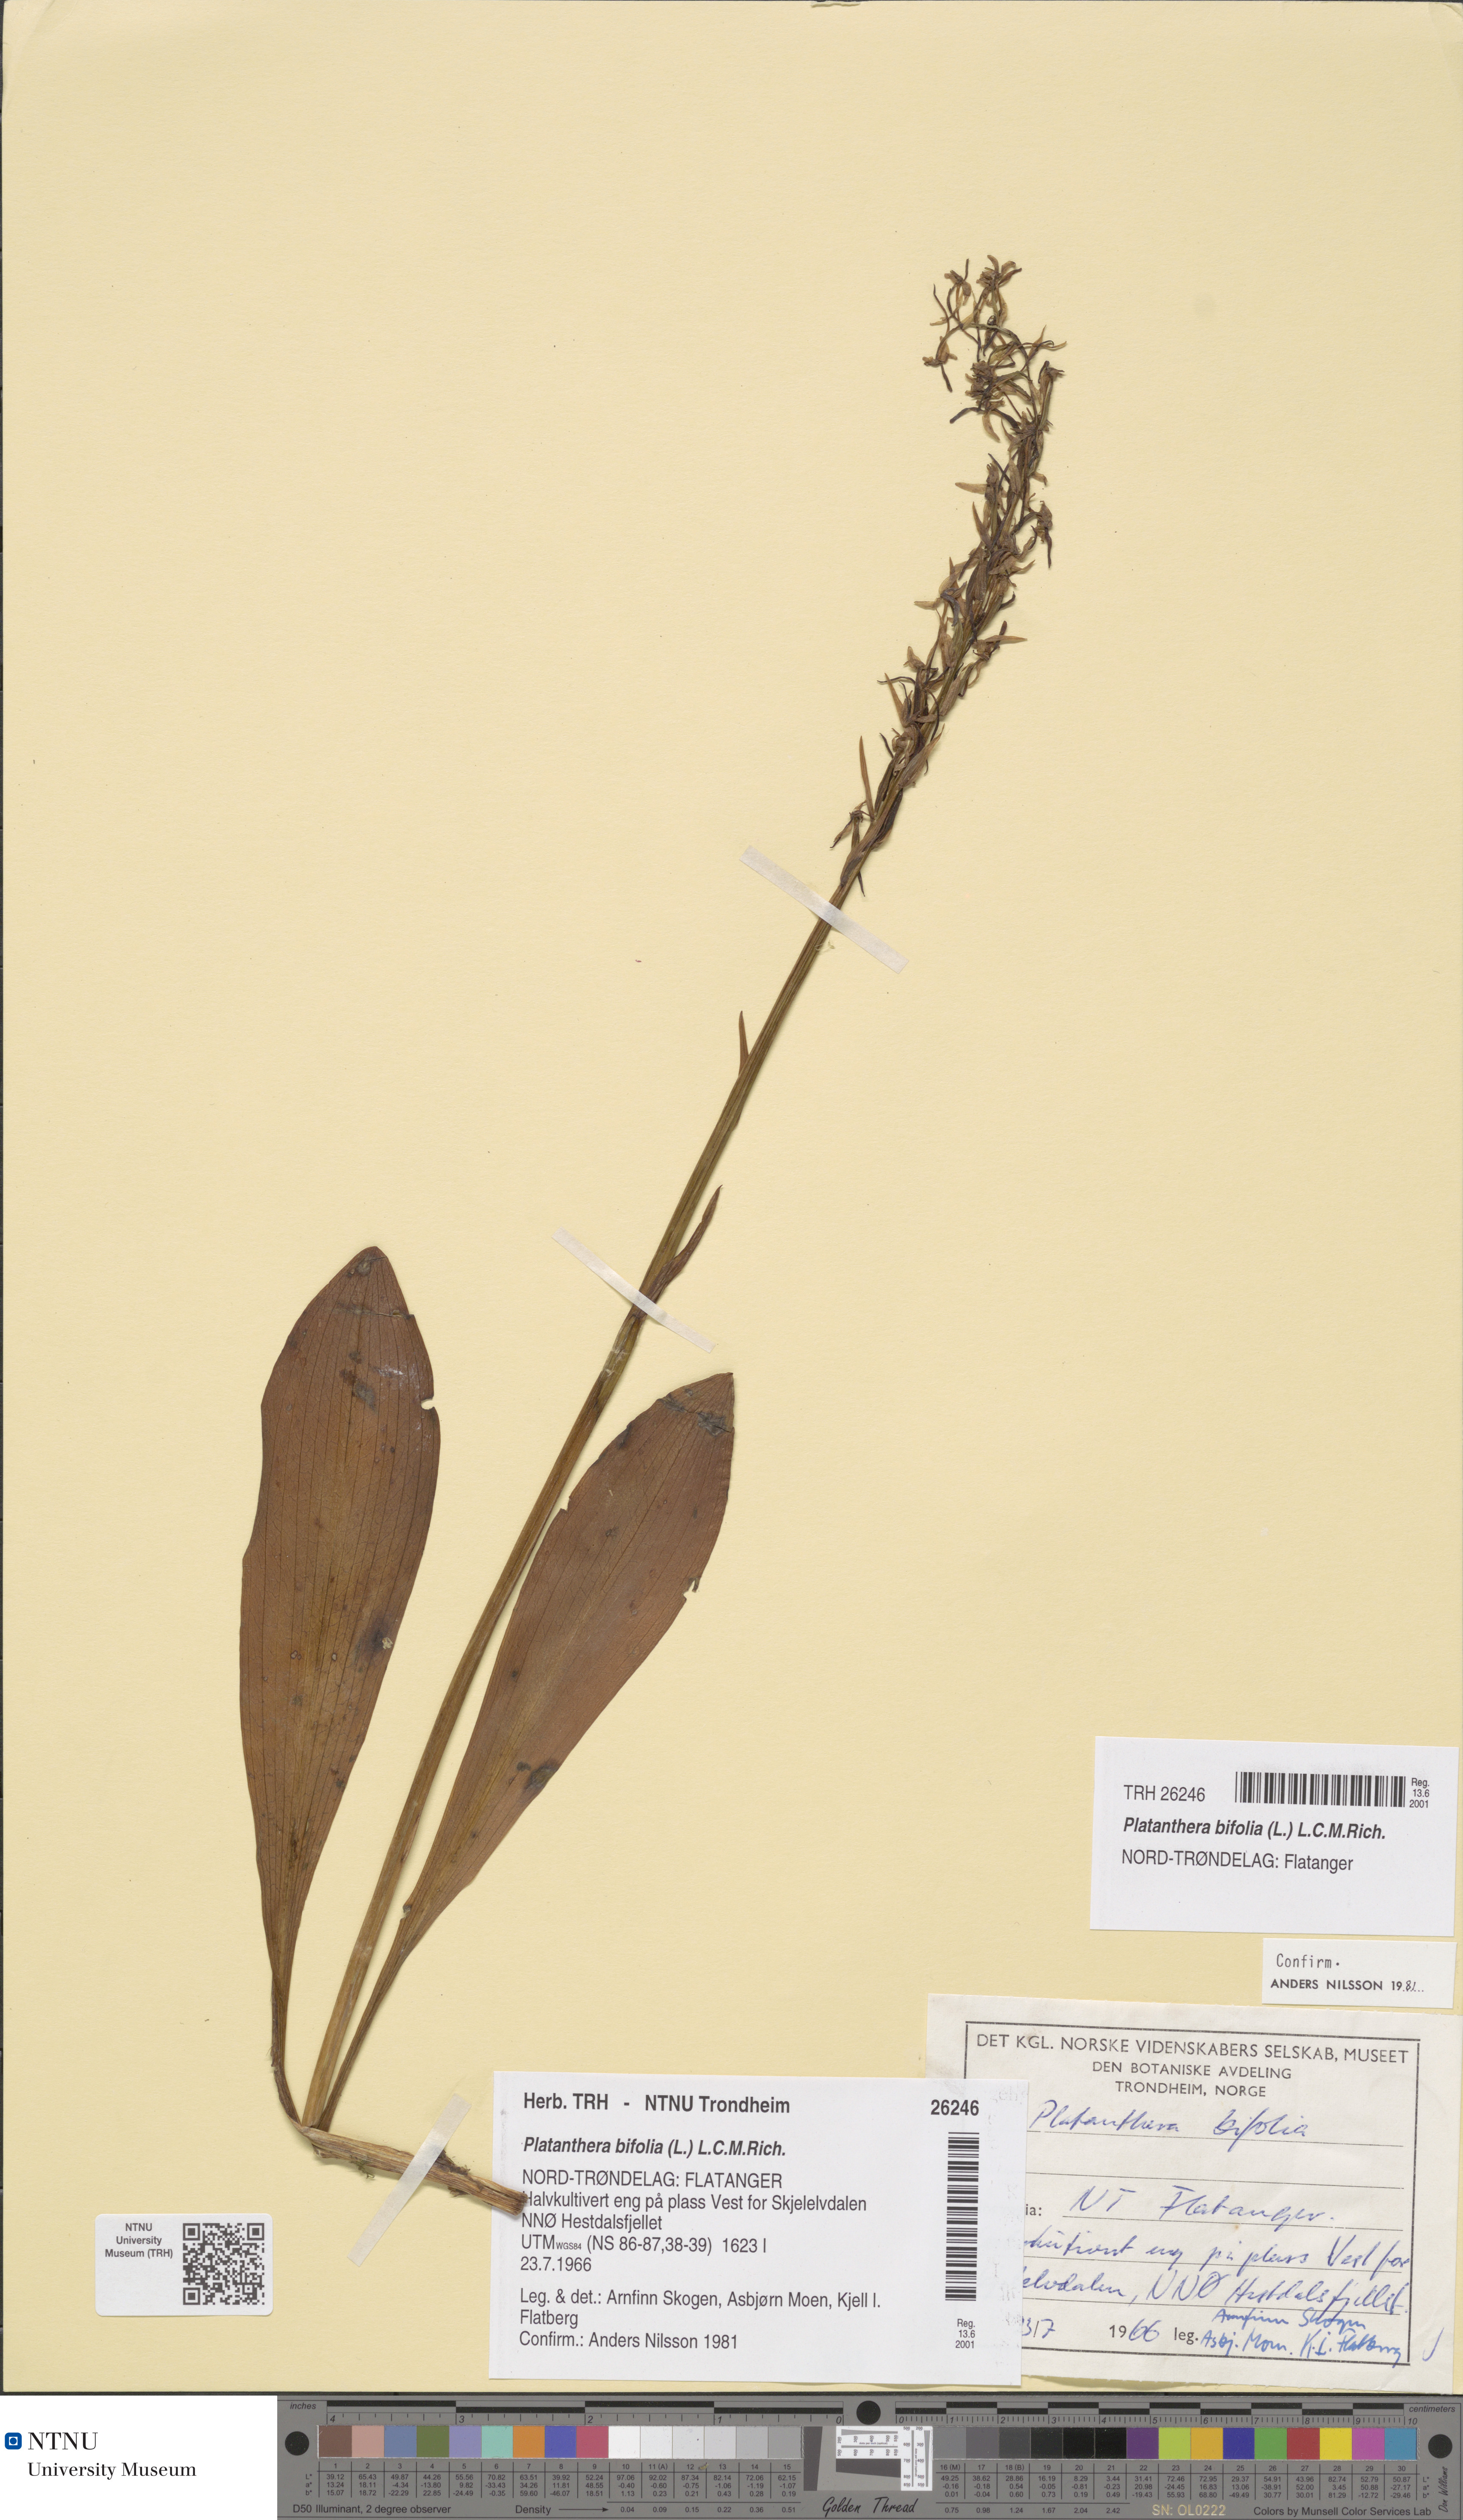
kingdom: Plantae
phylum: Tracheophyta
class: Liliopsida
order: Asparagales
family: Orchidaceae
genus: Platanthera
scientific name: Platanthera bifolia
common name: Lesser butterfly-orchid
